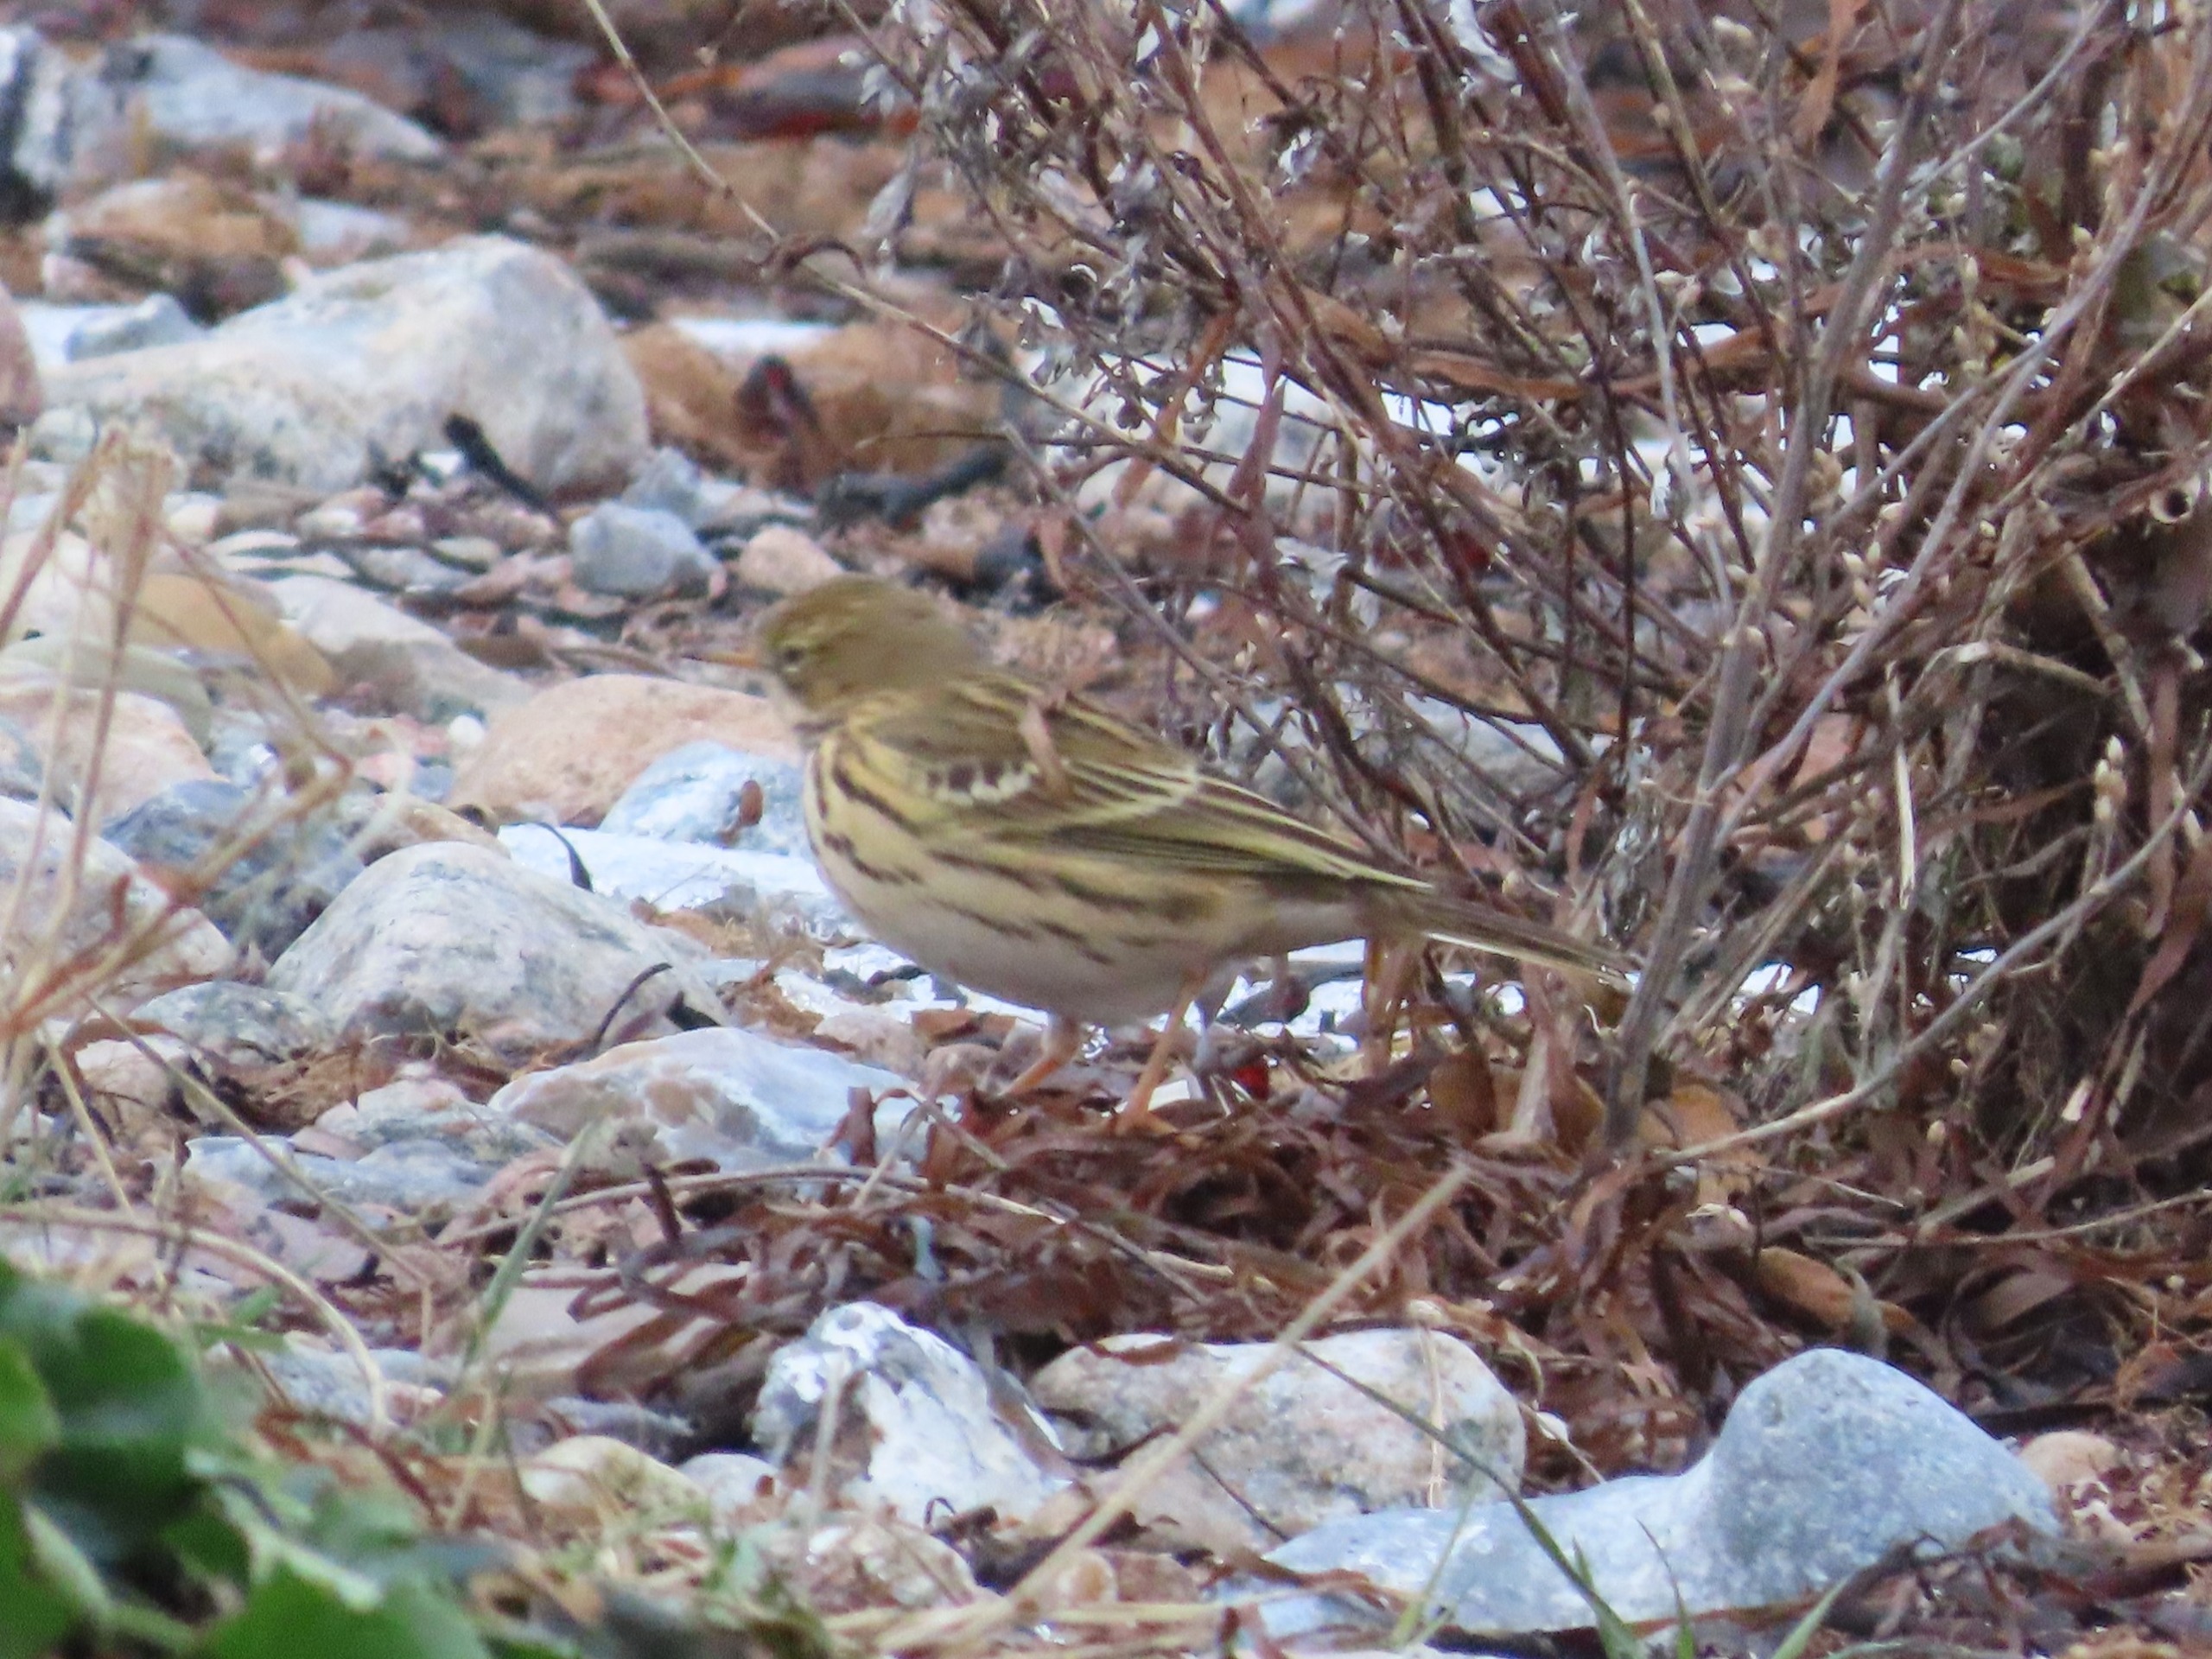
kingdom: Animalia
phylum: Chordata
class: Aves
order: Passeriformes
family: Motacillidae
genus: Anthus
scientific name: Anthus pratensis
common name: Engpiber
